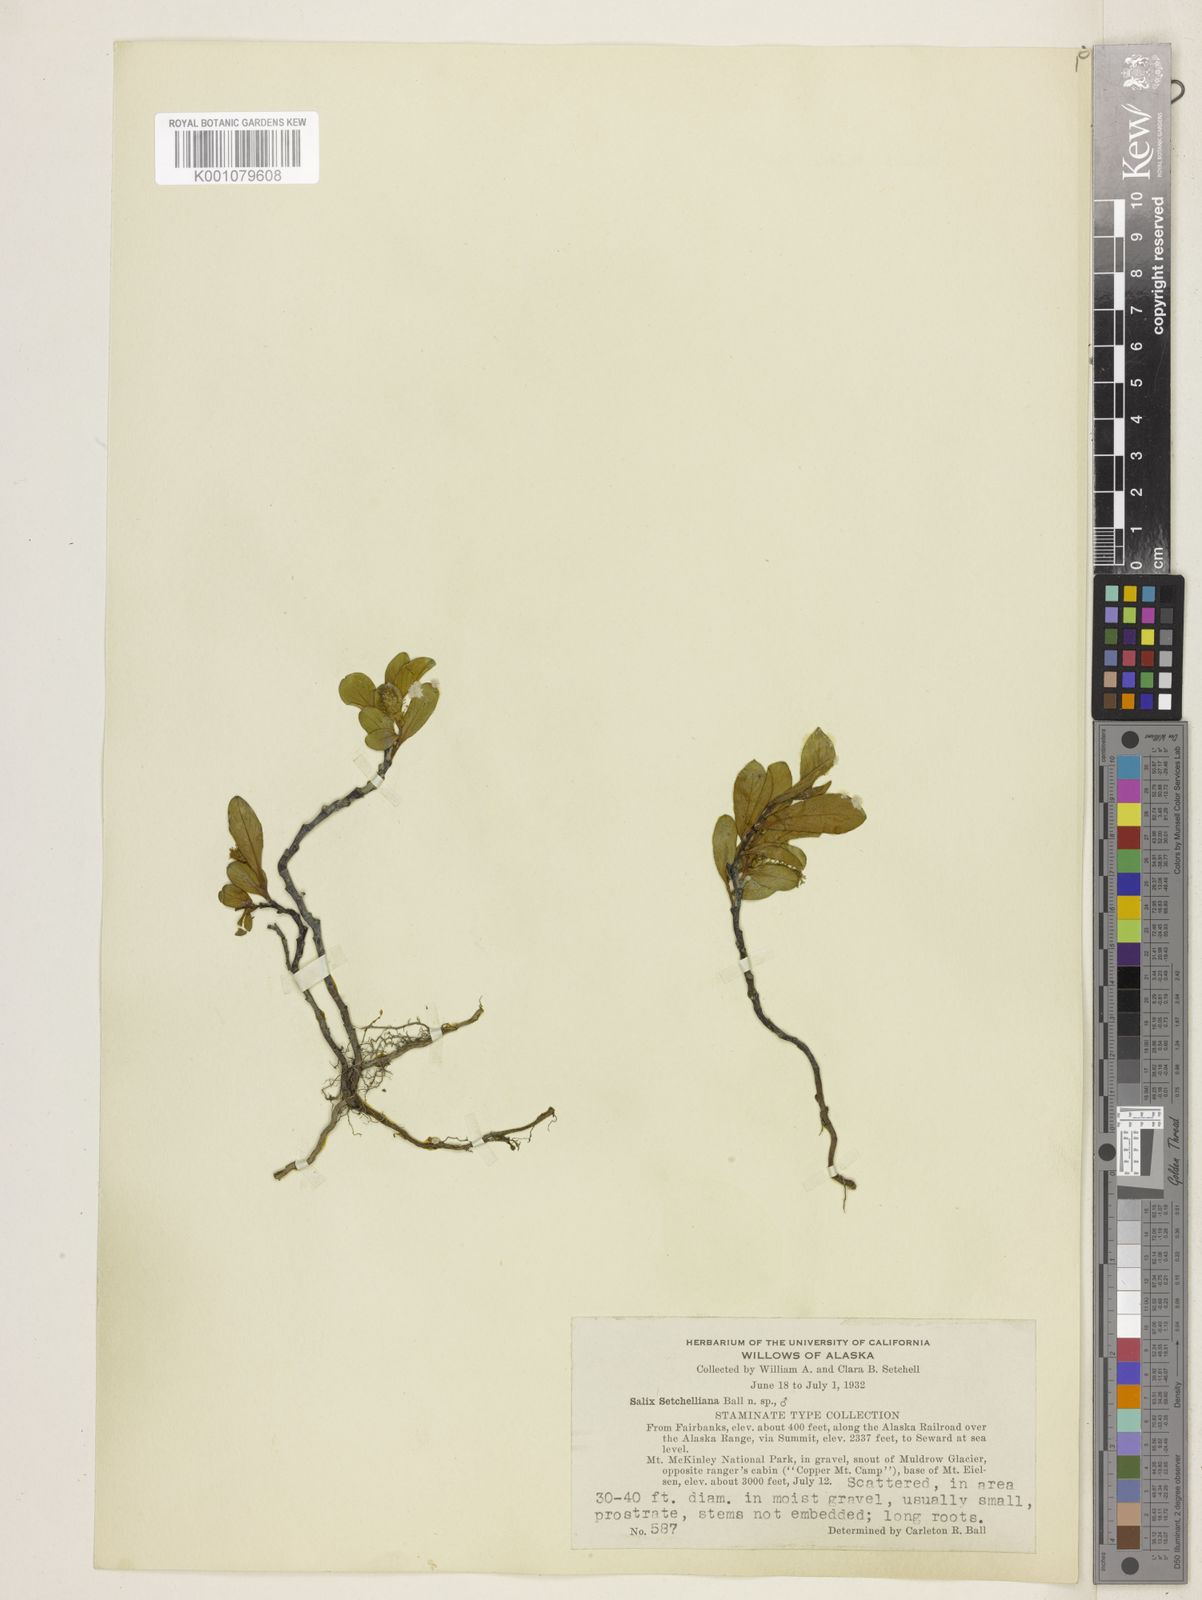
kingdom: Plantae
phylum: Tracheophyta
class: Magnoliopsida
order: Malpighiales
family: Salicaceae
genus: Salix
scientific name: Salix setchelliana
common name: Setchell's willow
